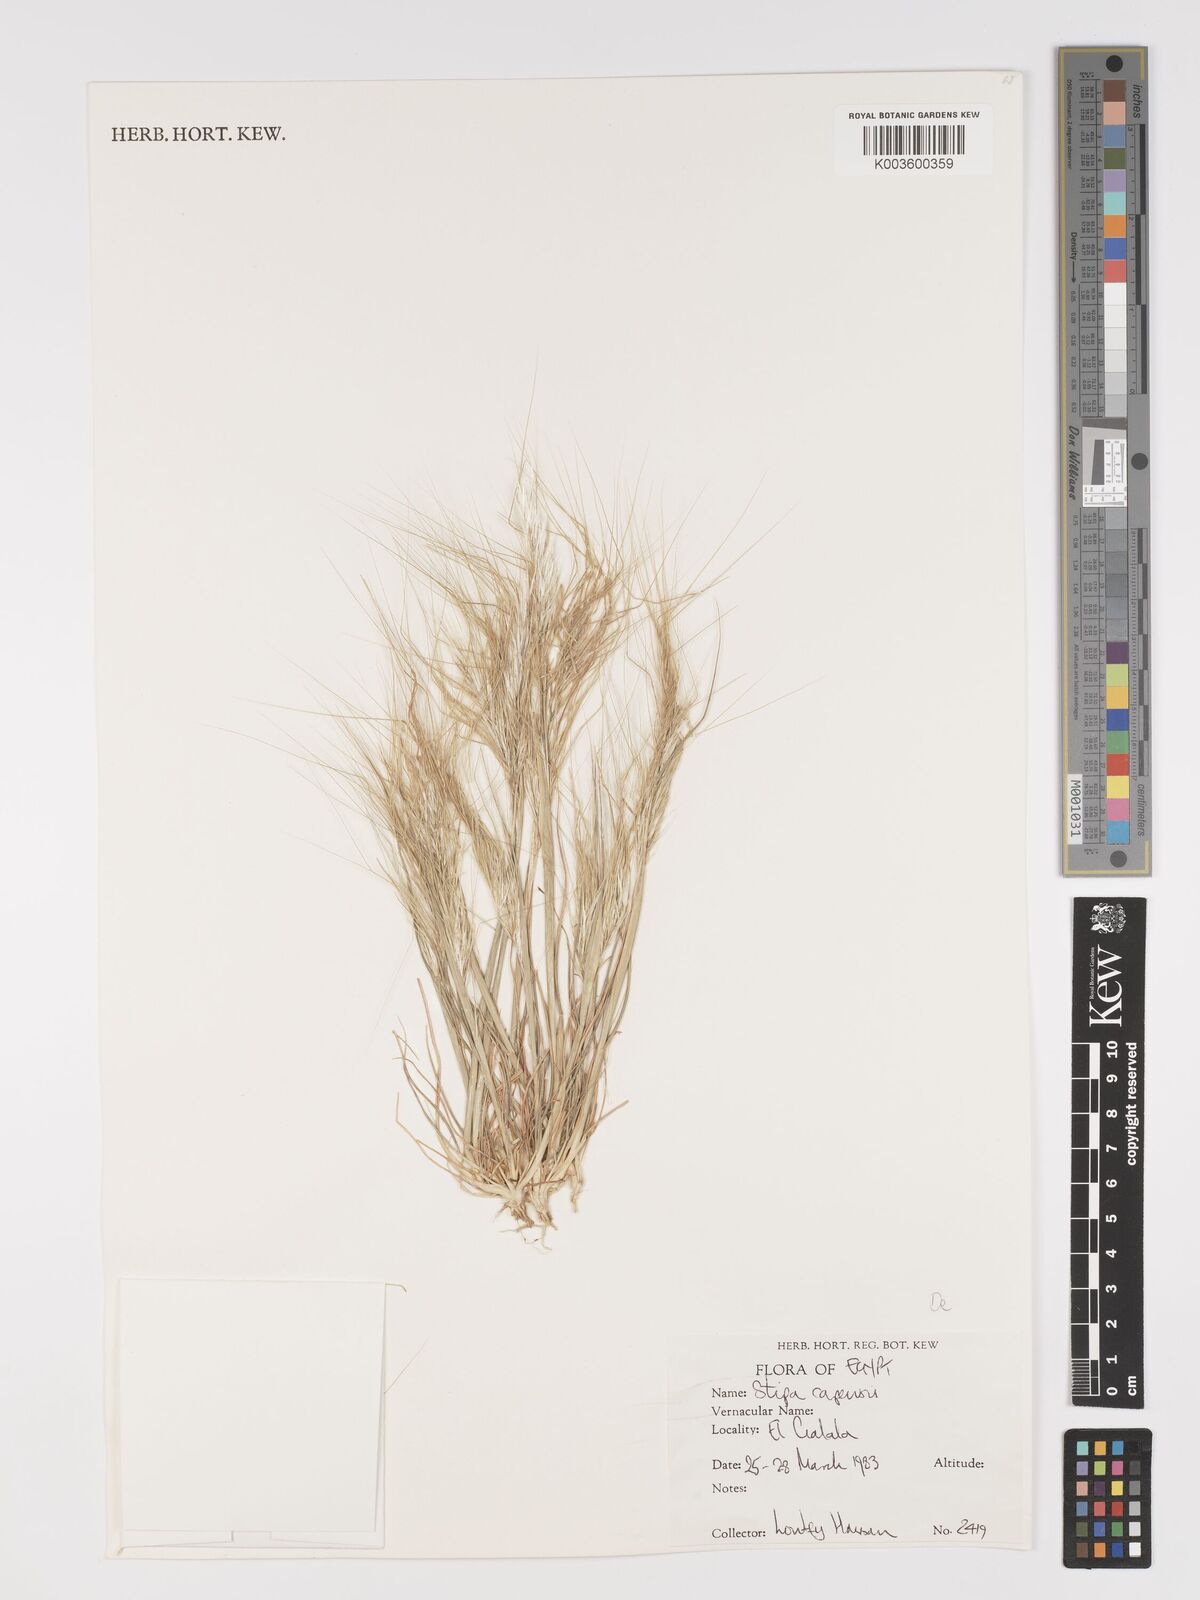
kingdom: Plantae
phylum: Tracheophyta
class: Liliopsida
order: Poales
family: Poaceae
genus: Stipellula
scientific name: Stipellula capensis
